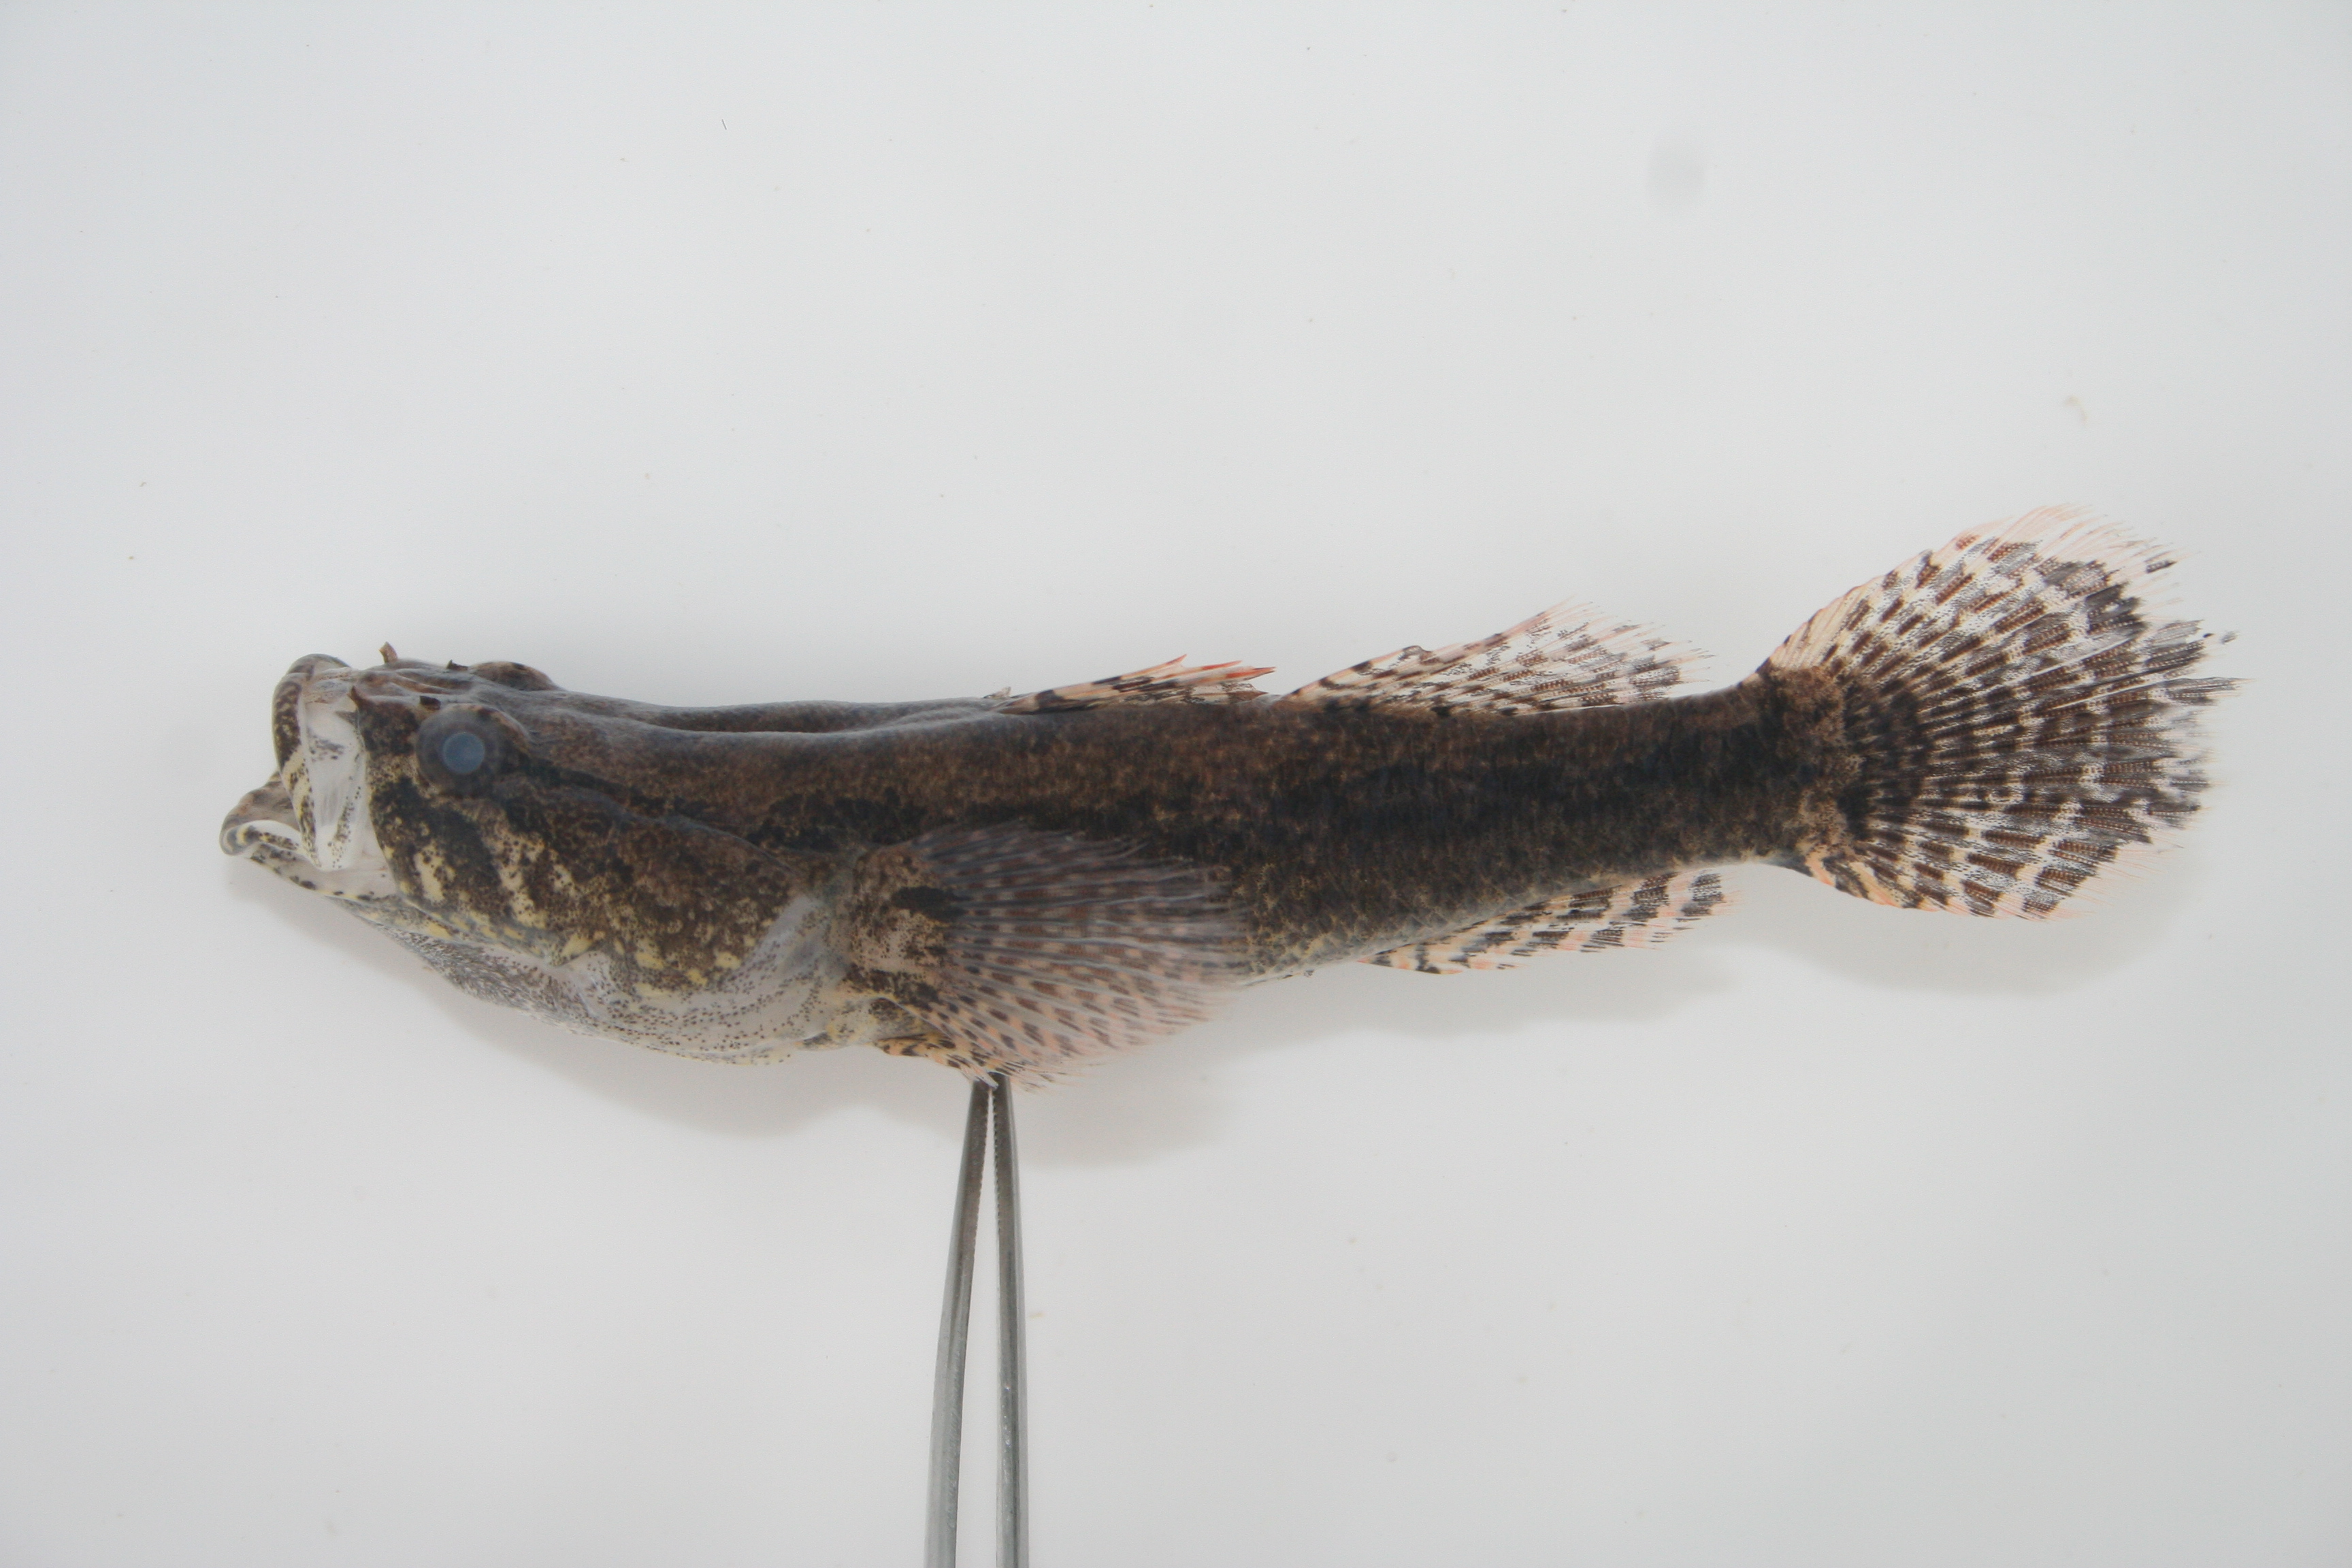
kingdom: Animalia
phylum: Chordata
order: Perciformes
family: Eleotridae
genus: Eleotris
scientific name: Eleotris
